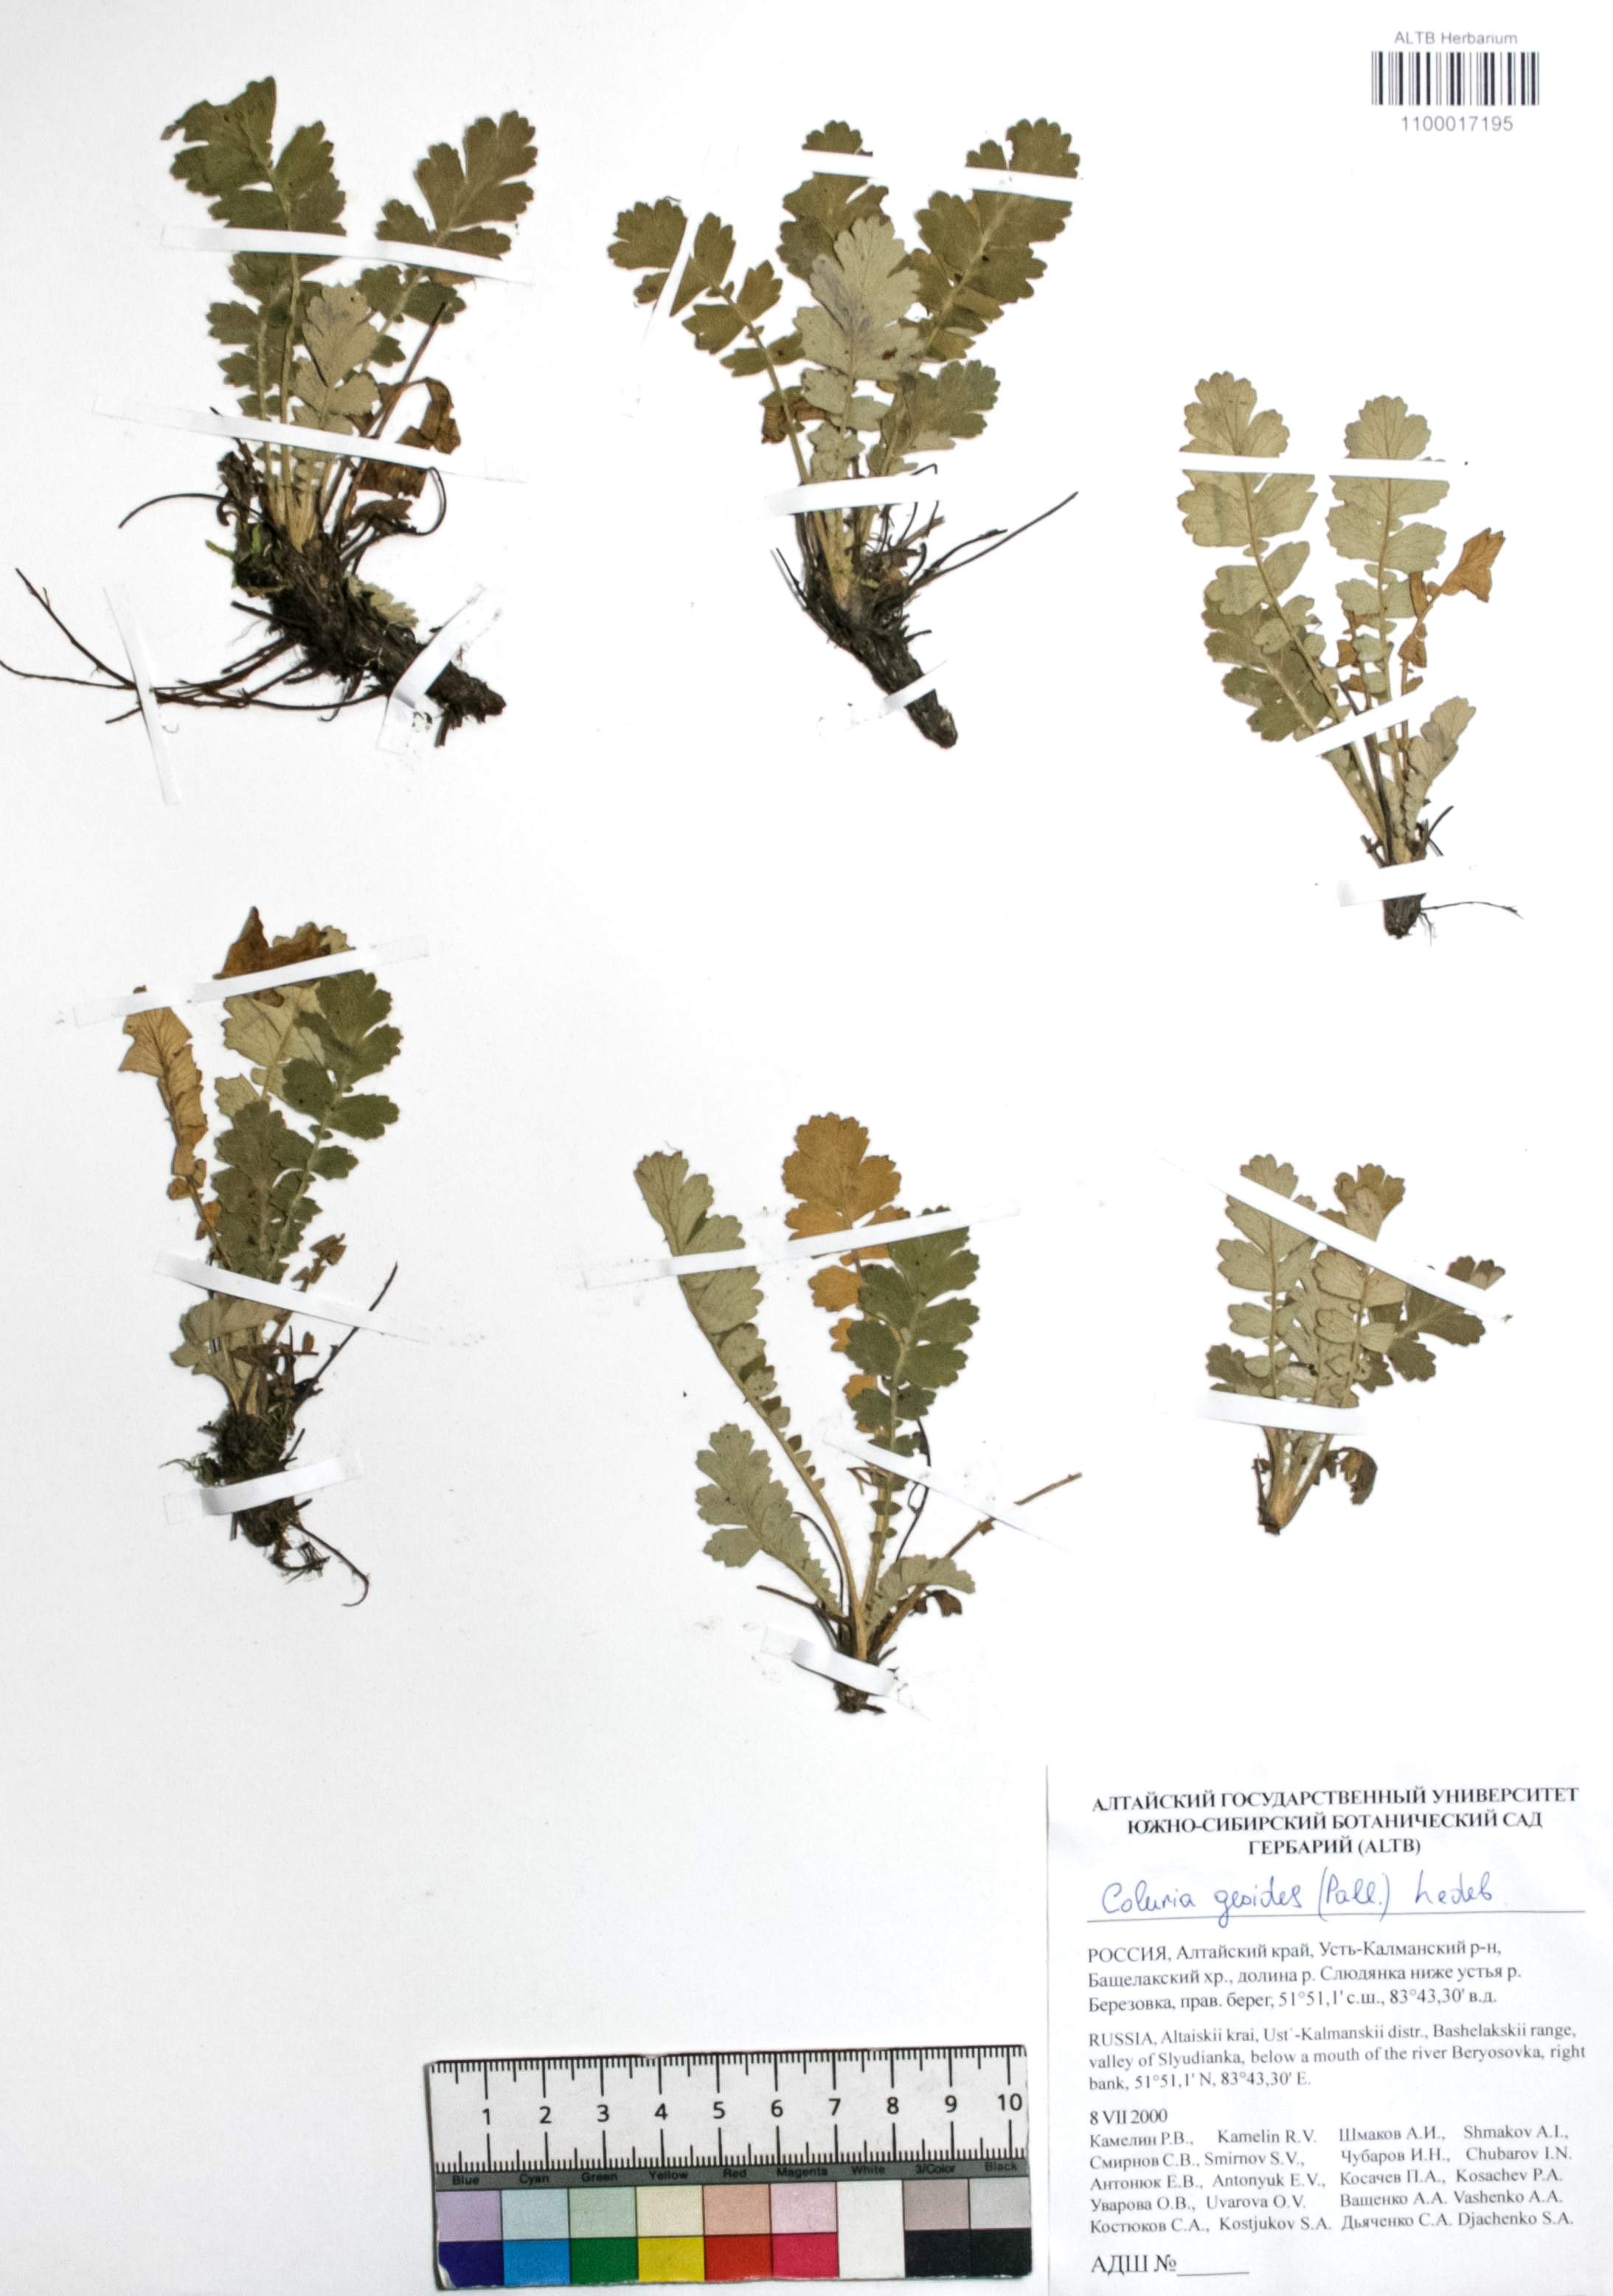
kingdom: Plantae
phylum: Tracheophyta
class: Magnoliopsida
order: Rosales
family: Rosaceae
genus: Geum
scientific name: Geum geoides
